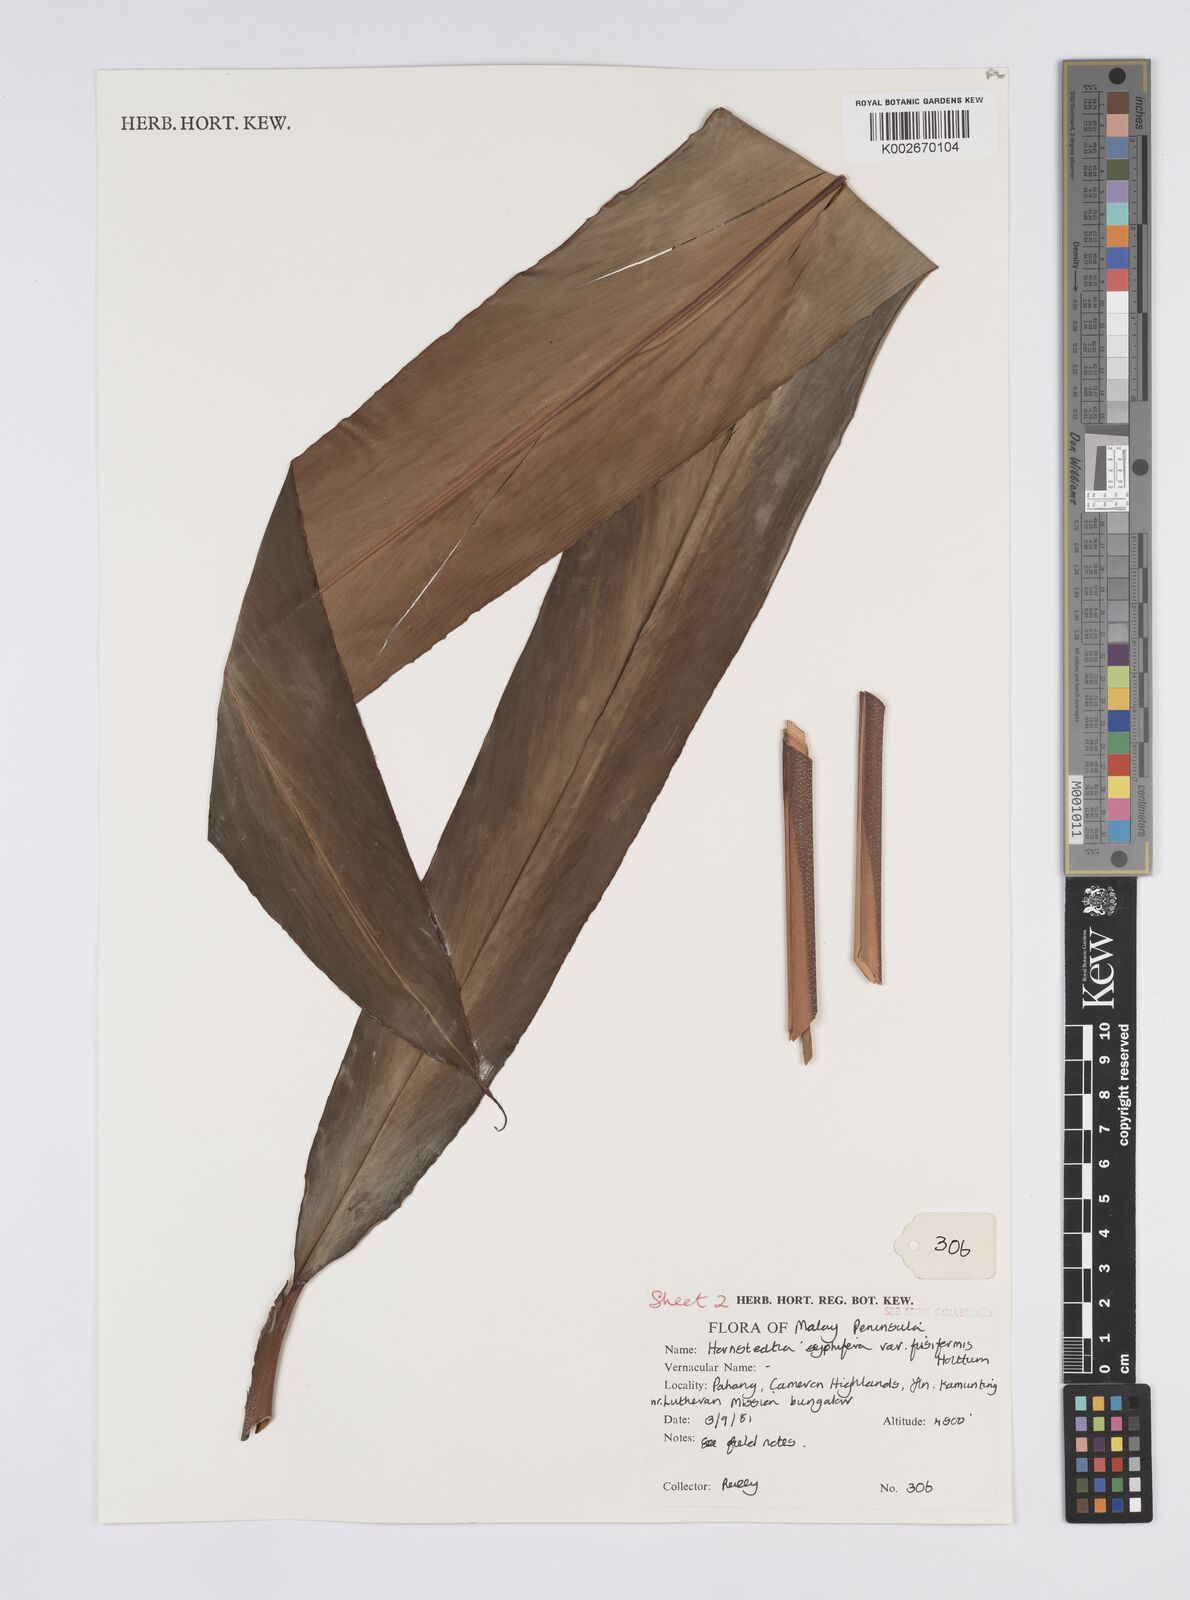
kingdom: Plantae
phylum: Tracheophyta
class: Liliopsida
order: Zingiberales
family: Zingiberaceae
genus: Hornstedtia
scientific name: Hornstedtia scyphifera
